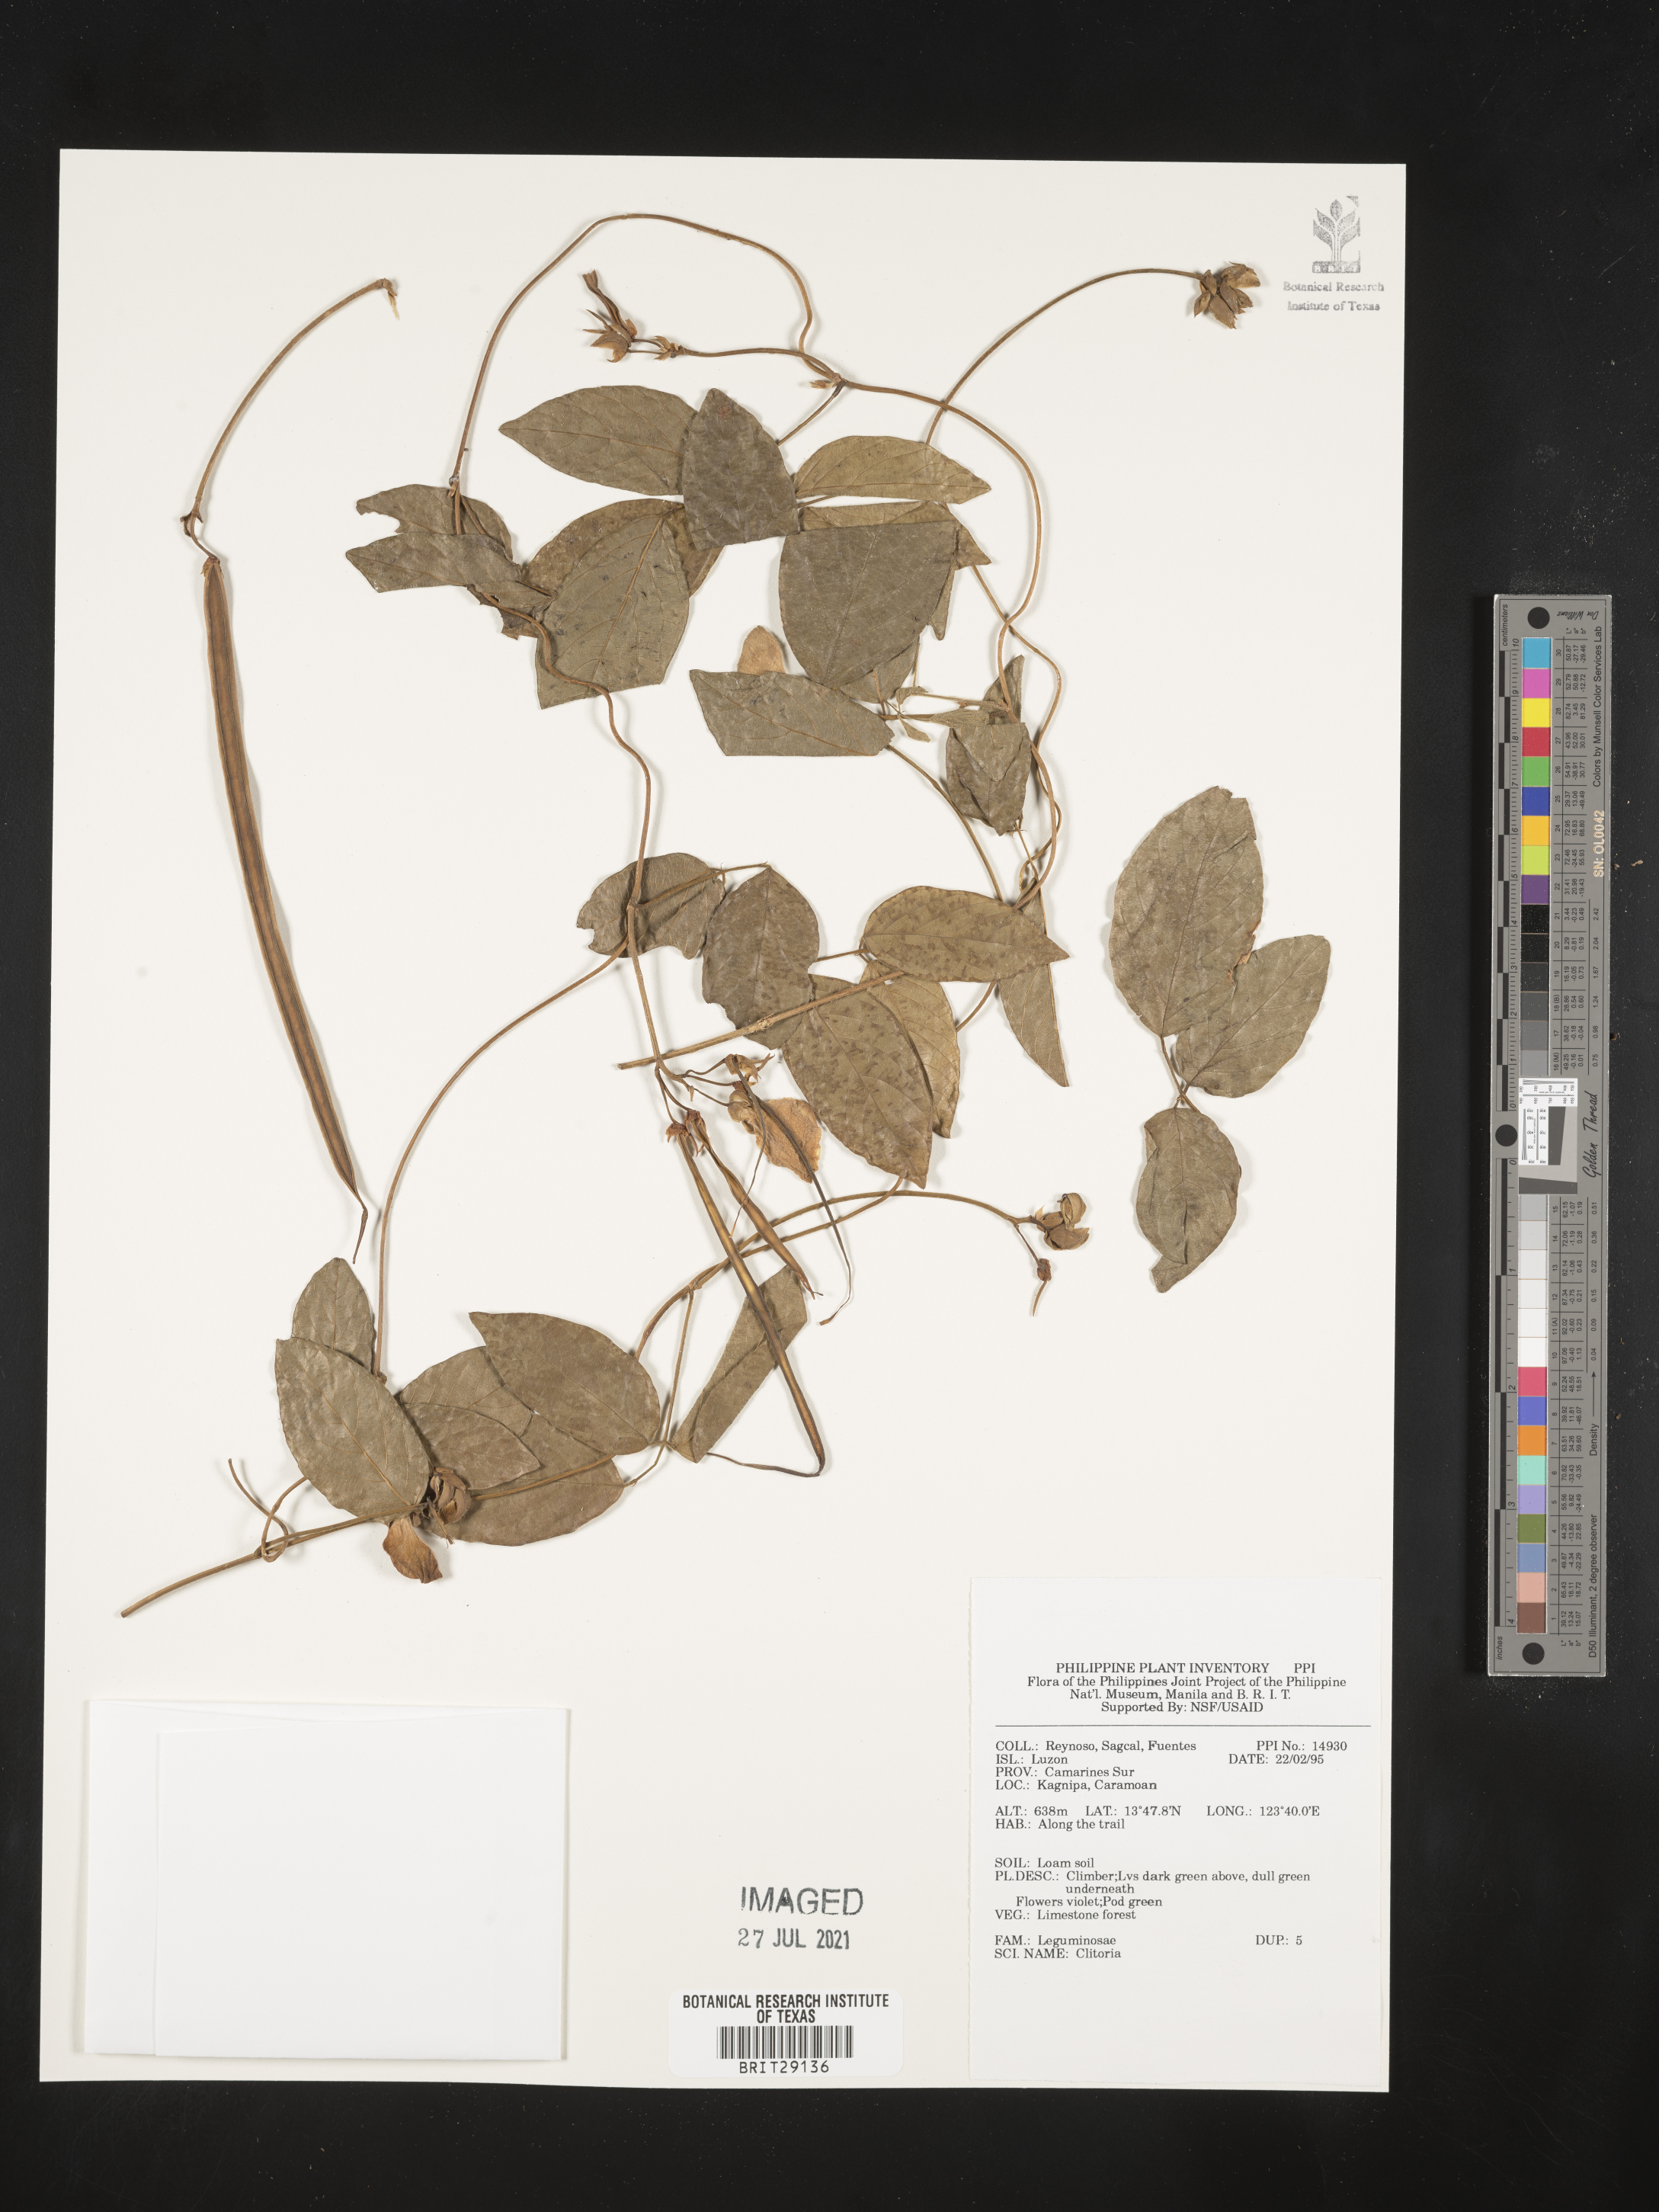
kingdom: Plantae
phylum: Tracheophyta
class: Magnoliopsida
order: Fabales
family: Fabaceae
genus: Clitoria
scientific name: Clitoria
